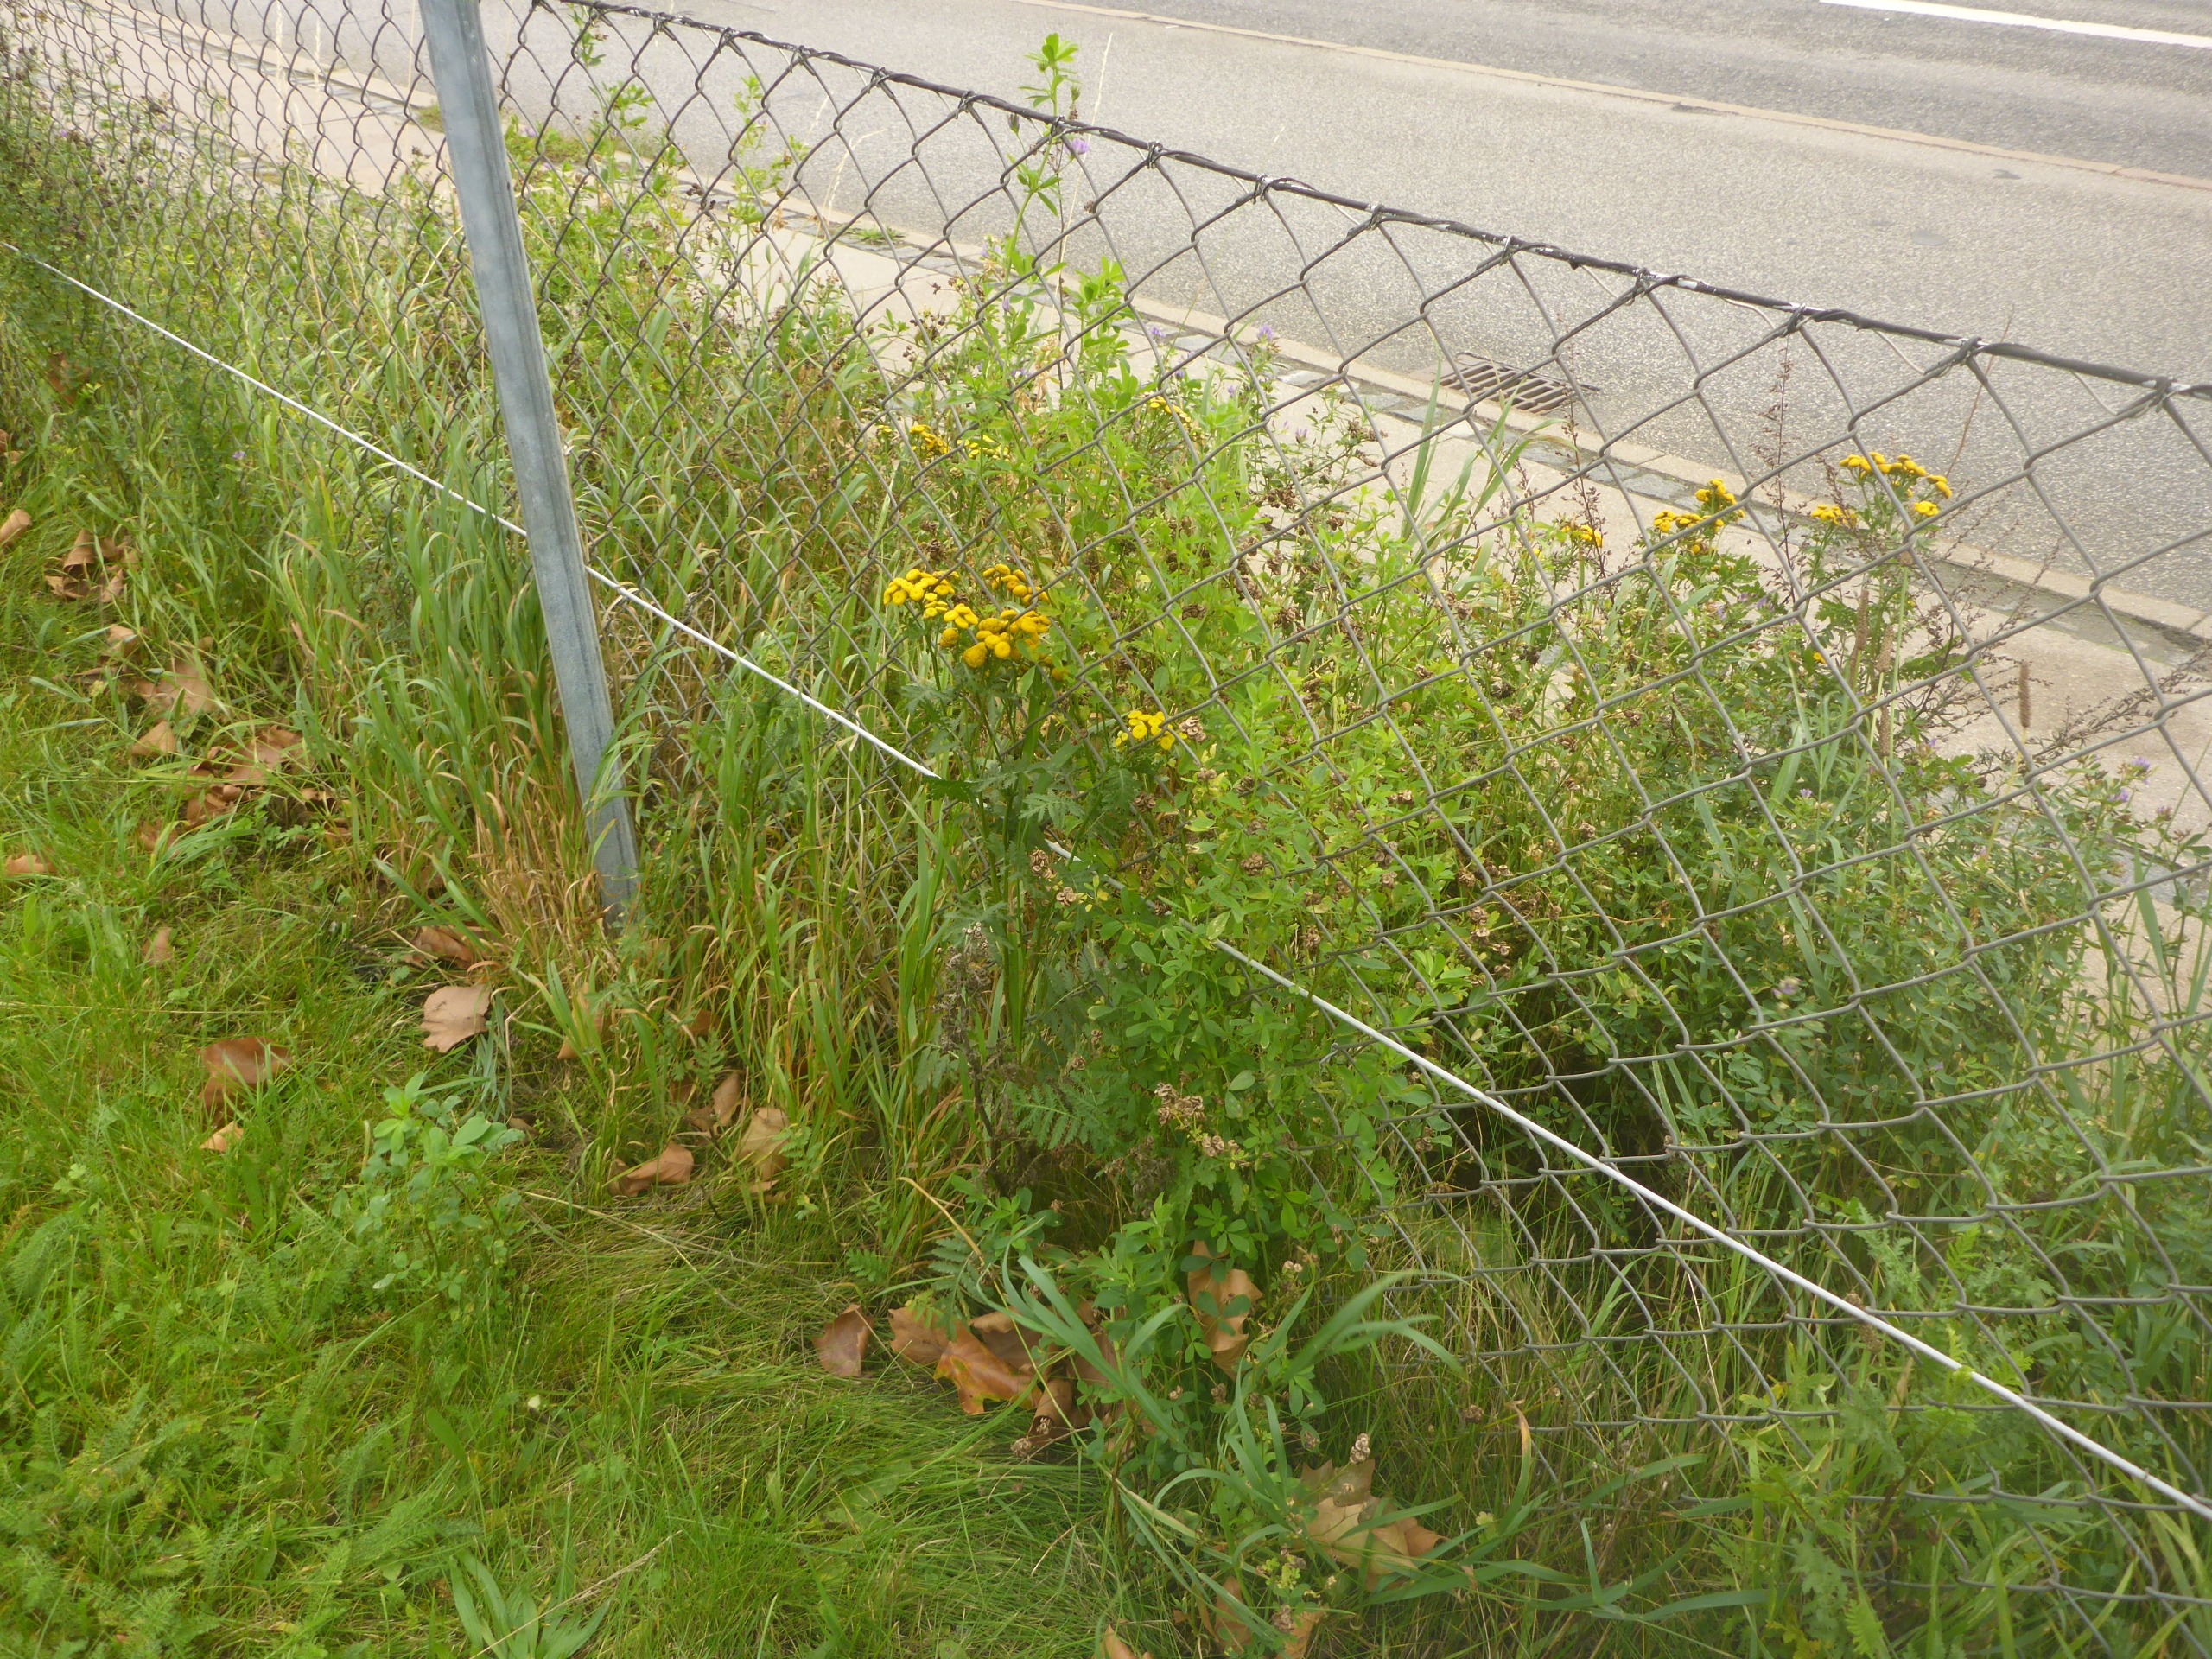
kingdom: Plantae
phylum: Tracheophyta
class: Magnoliopsida
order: Asterales
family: Asteraceae
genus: Tanacetum
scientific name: Tanacetum vulgare
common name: Rejnfan
